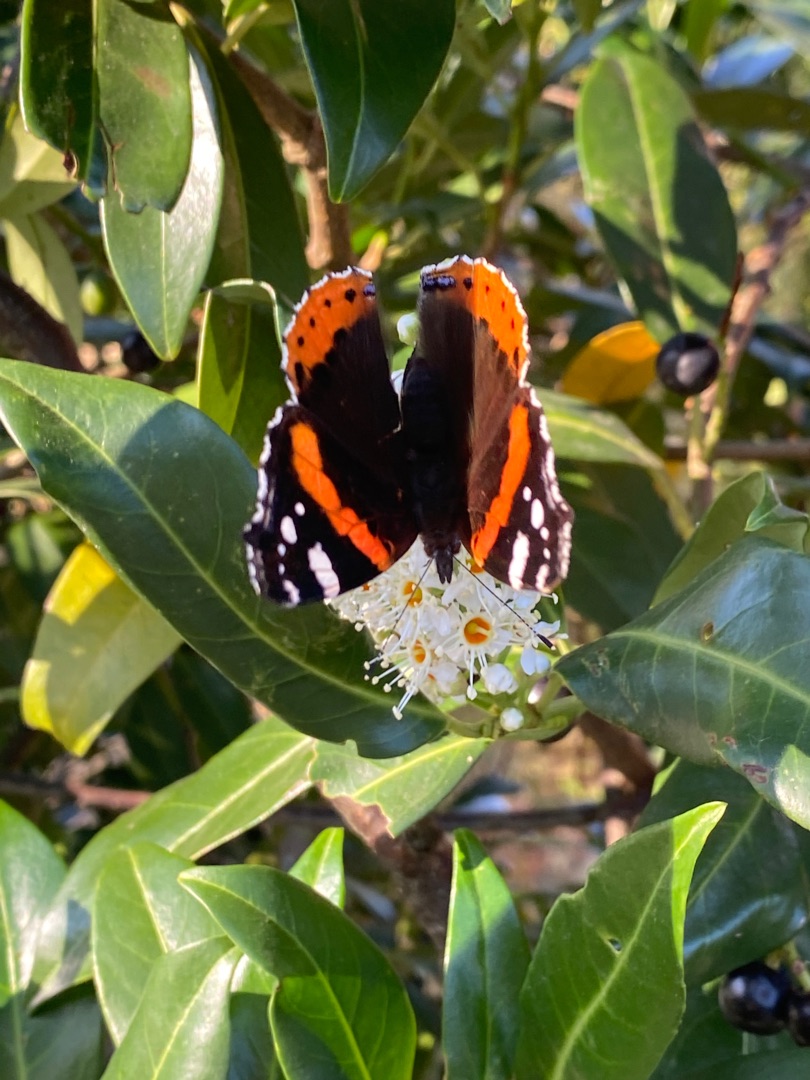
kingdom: Animalia
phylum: Arthropoda
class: Insecta
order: Lepidoptera
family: Nymphalidae
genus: Vanessa
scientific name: Vanessa atalanta
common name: Admiral
